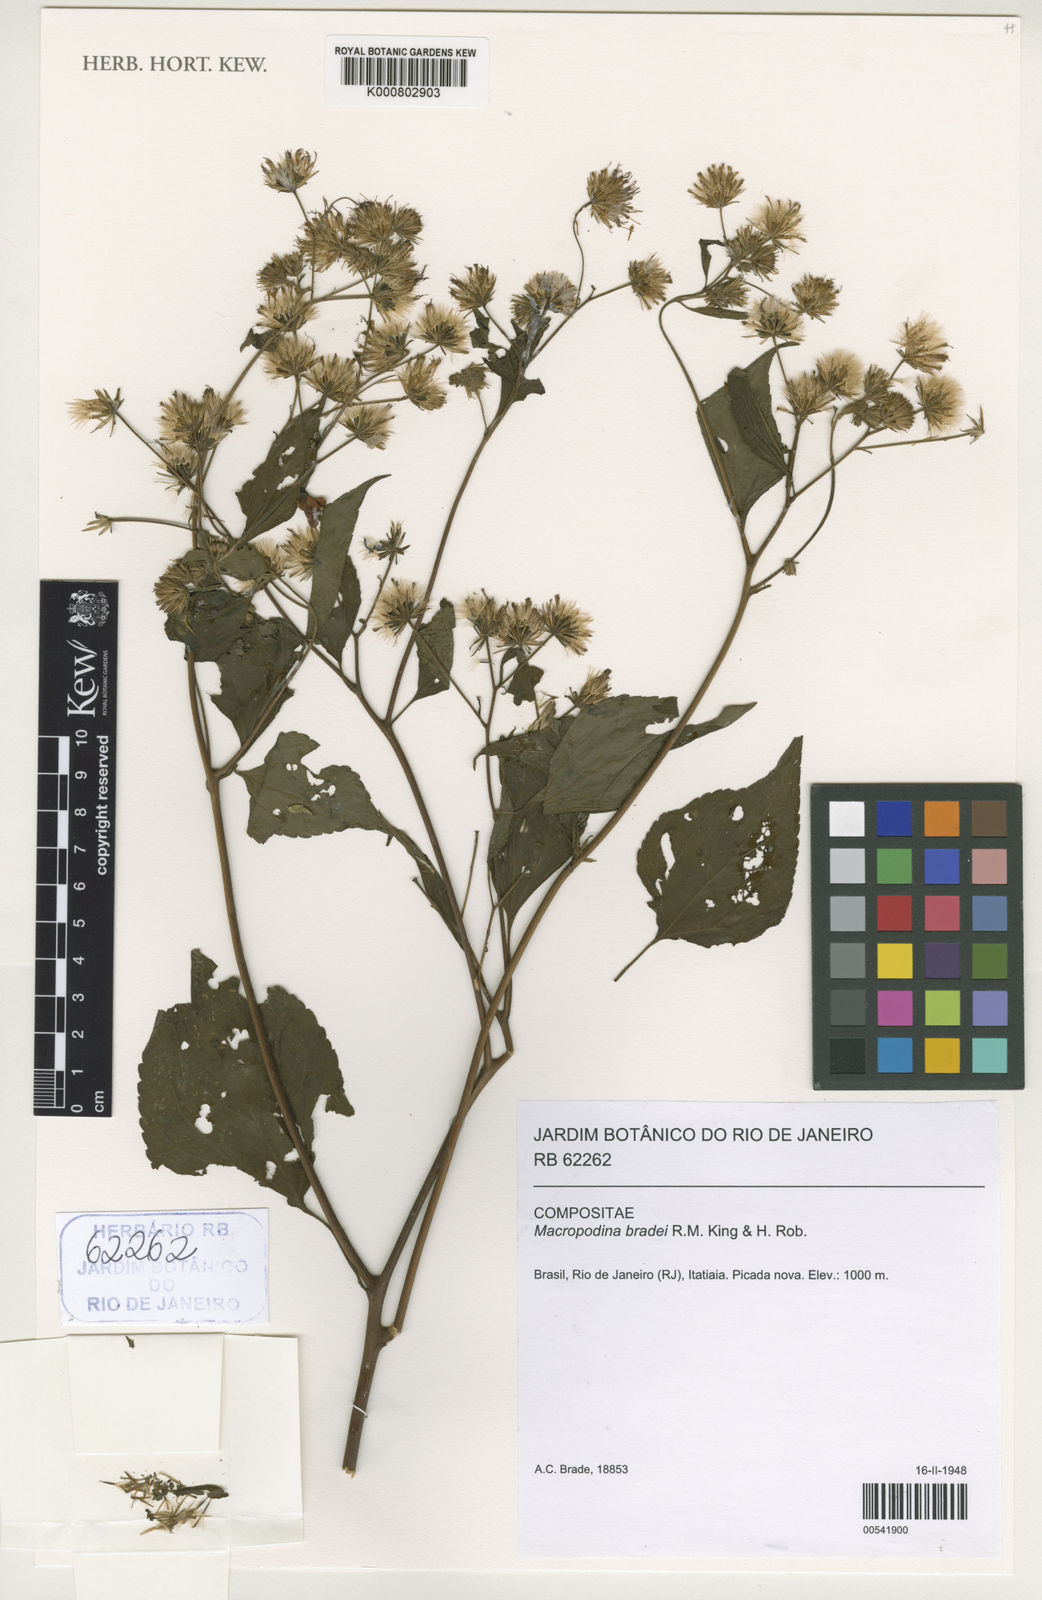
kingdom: Plantae
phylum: Tracheophyta
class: Magnoliopsida
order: Asterales
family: Asteraceae
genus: Macropodina
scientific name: Macropodina bradei
